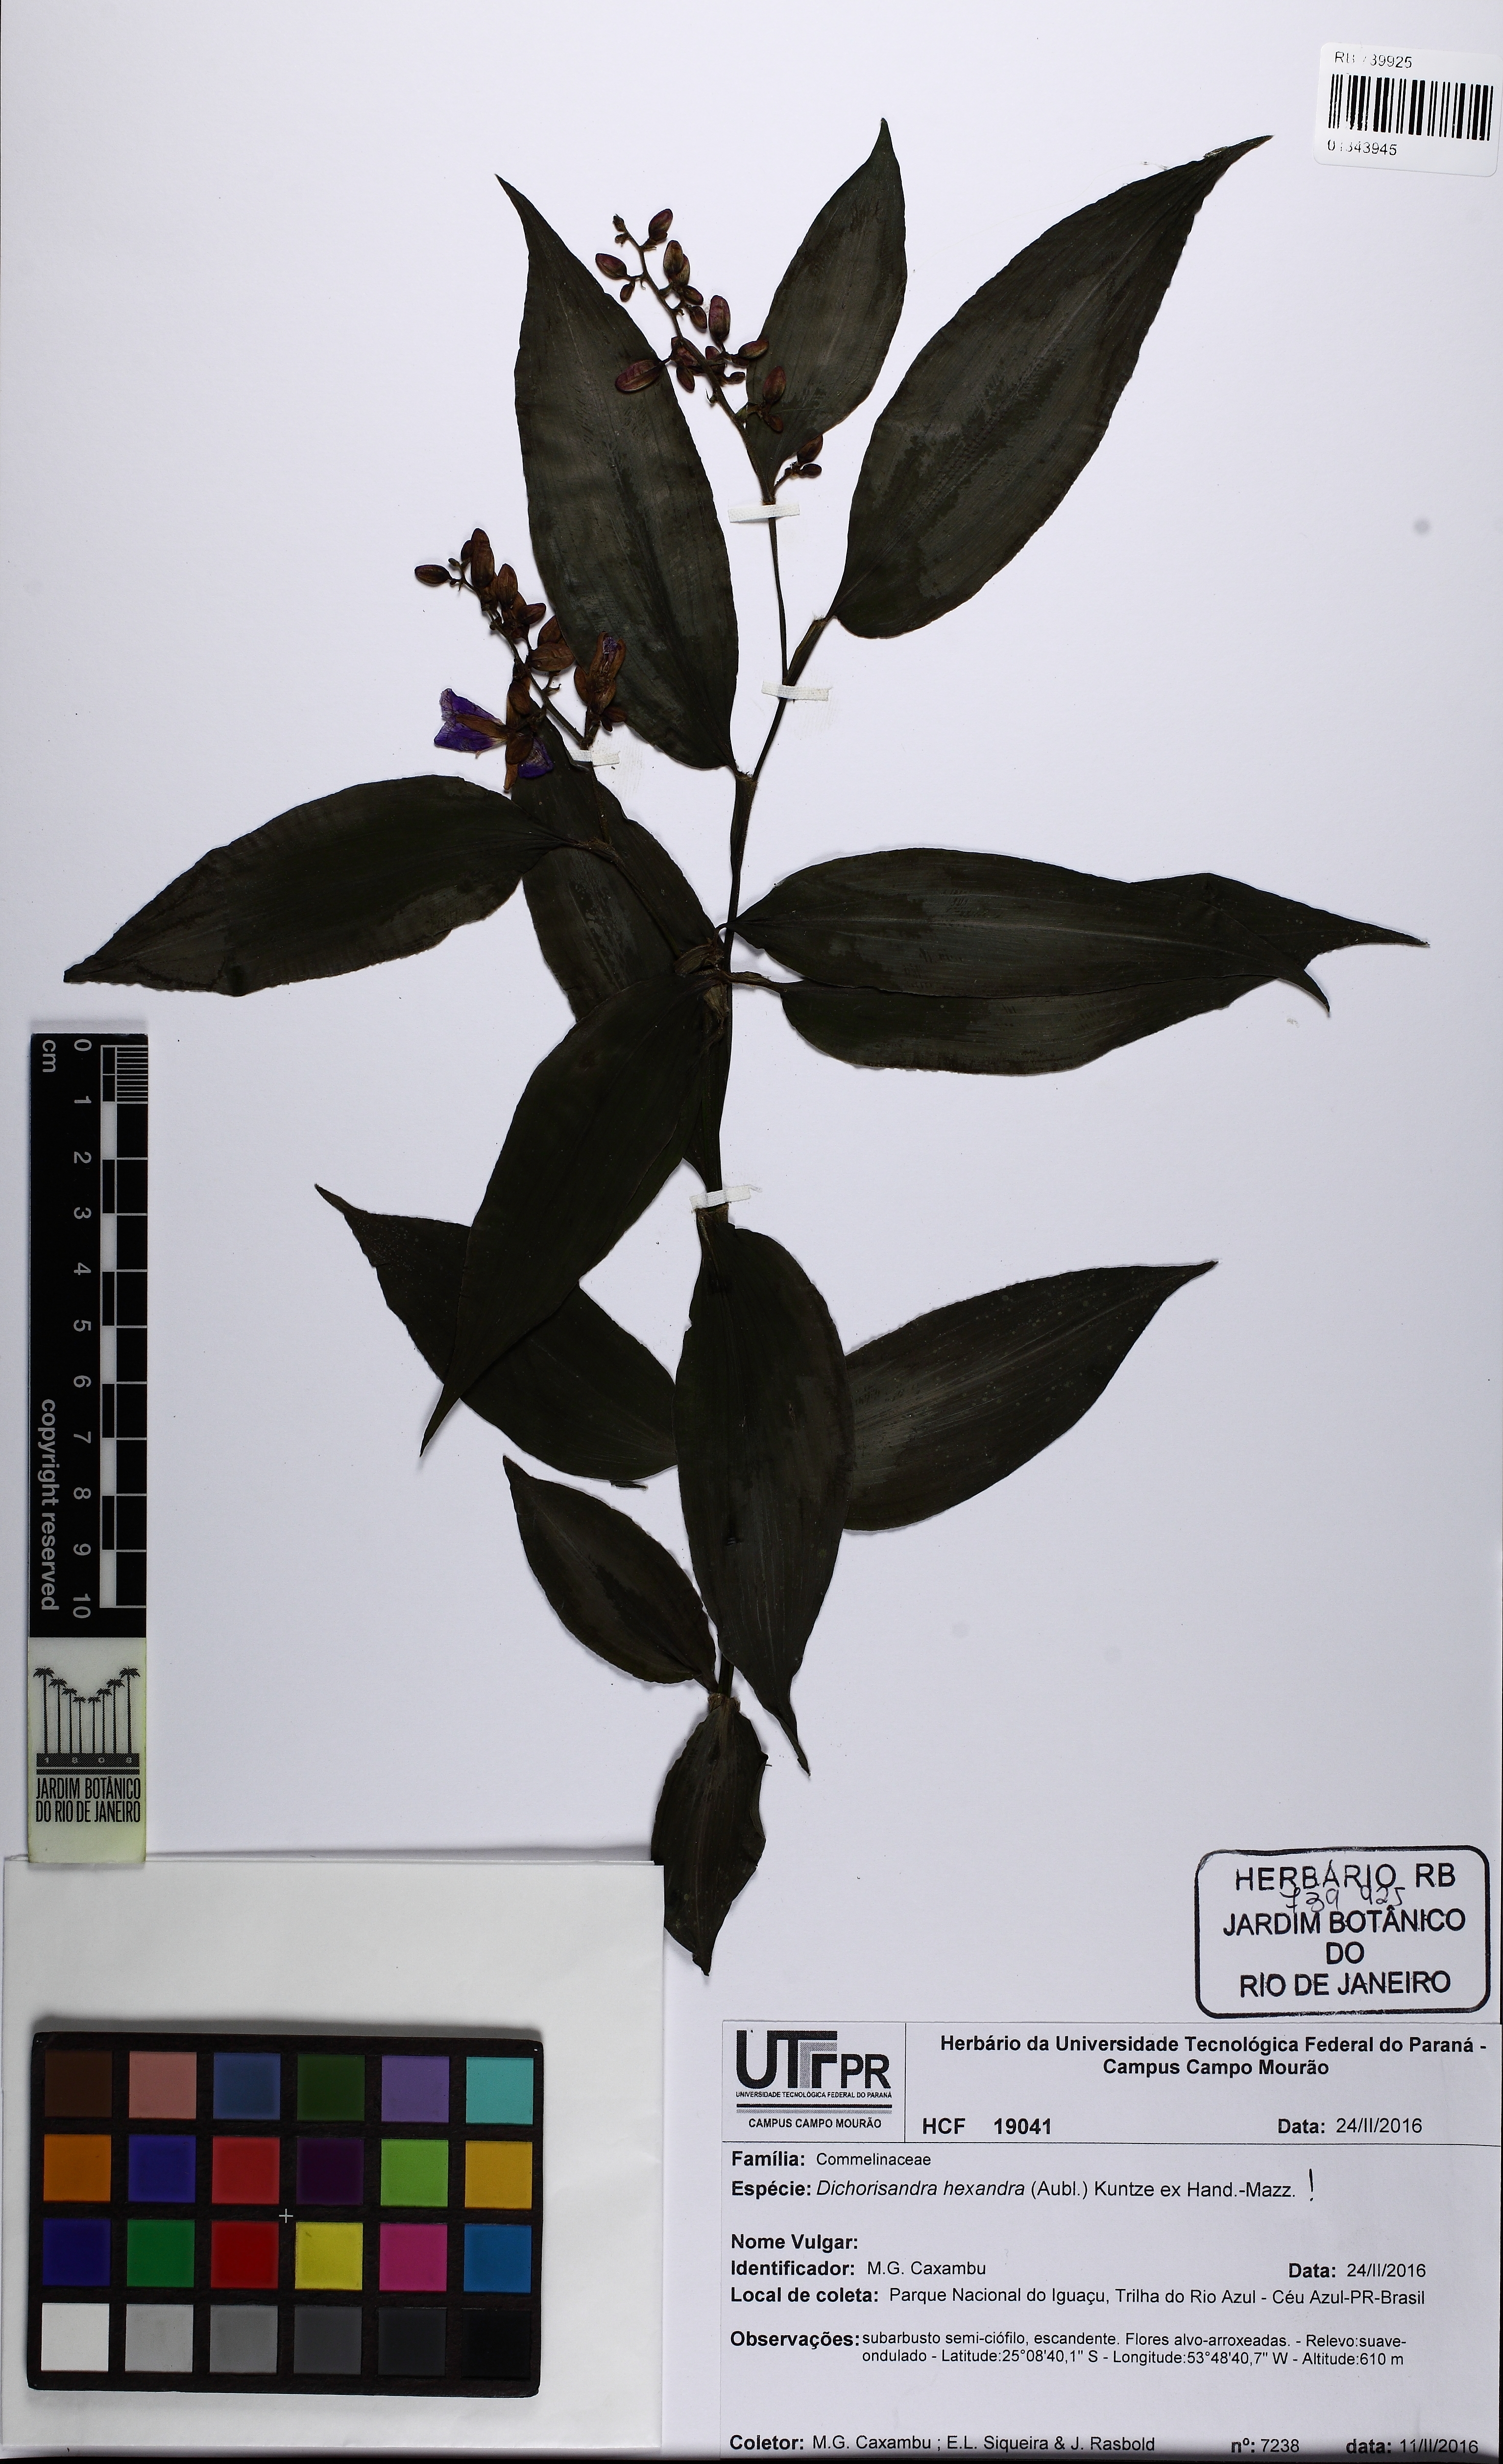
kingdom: Plantae
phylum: Tracheophyta
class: Liliopsida
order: Commelinales
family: Commelinaceae
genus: Dichorisandra
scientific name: Dichorisandra hexandra
